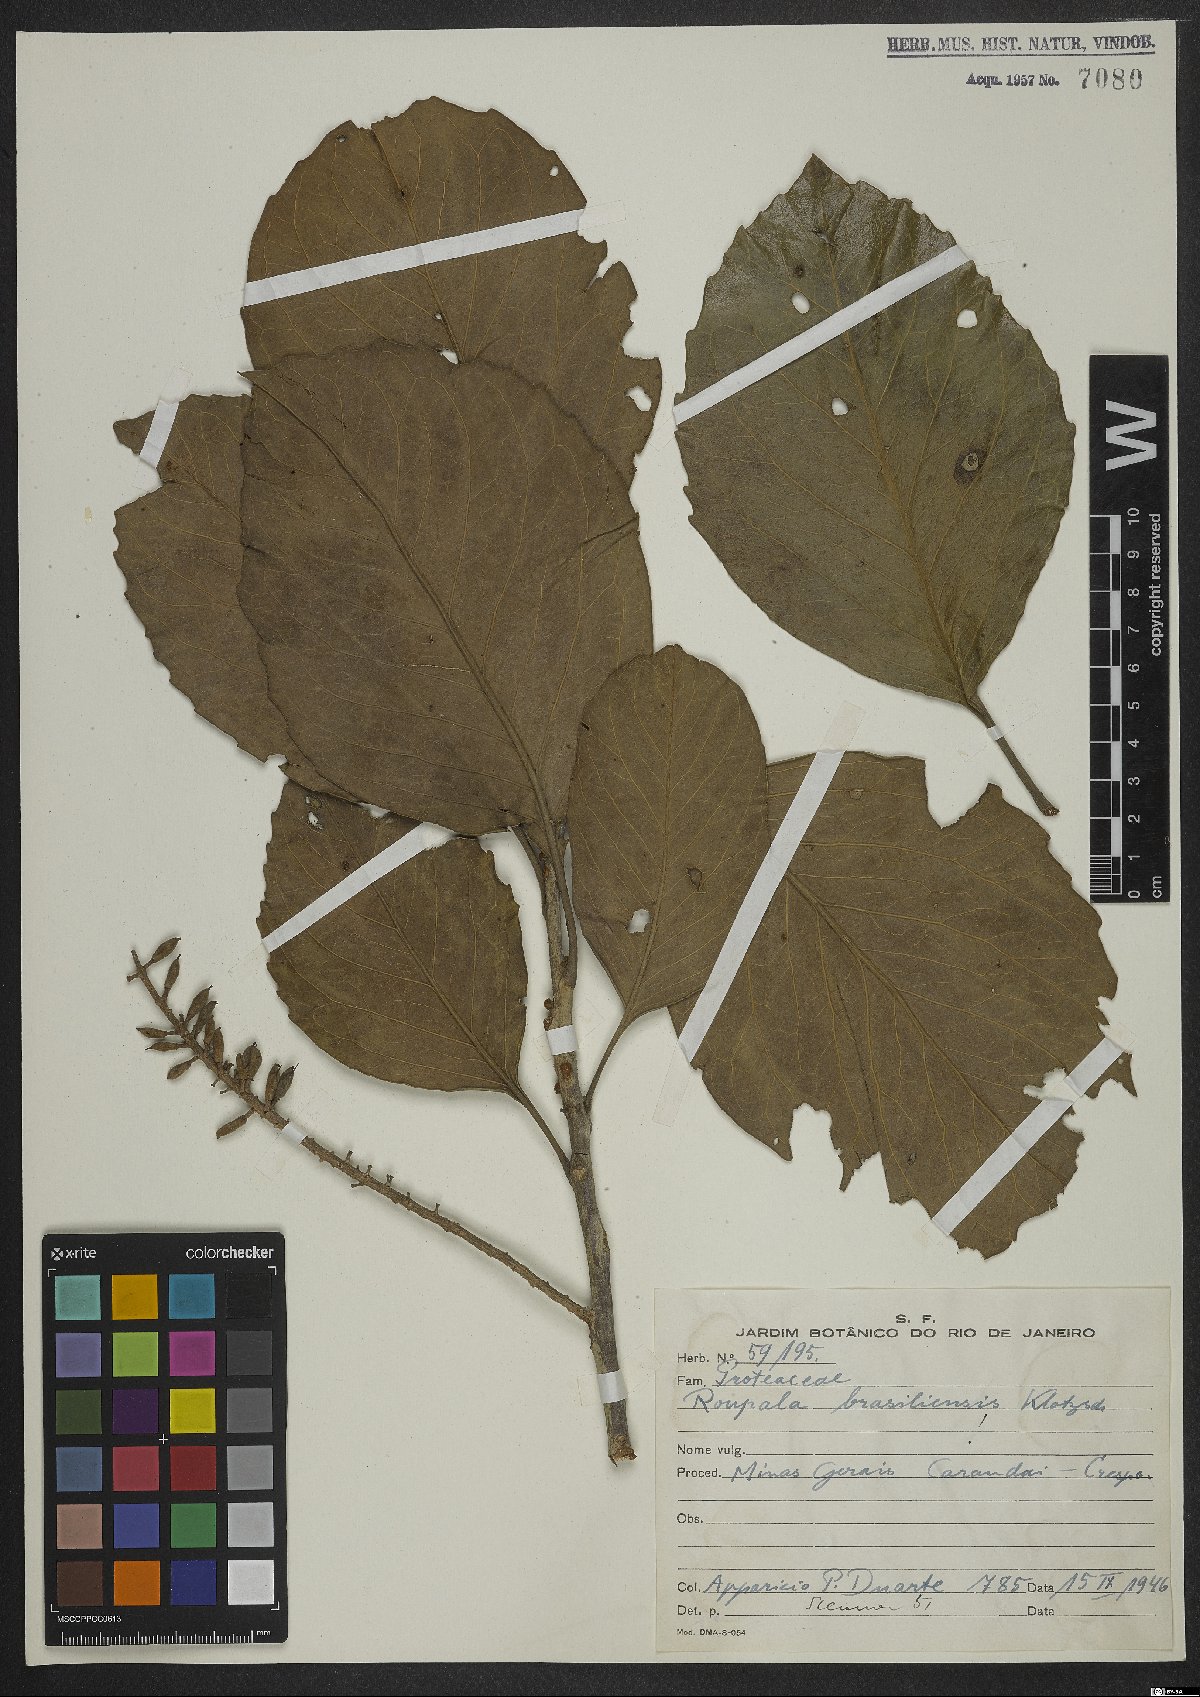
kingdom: Plantae
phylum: Tracheophyta
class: Magnoliopsida
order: Proteales
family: Proteaceae
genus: Roupala
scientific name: Roupala montana
